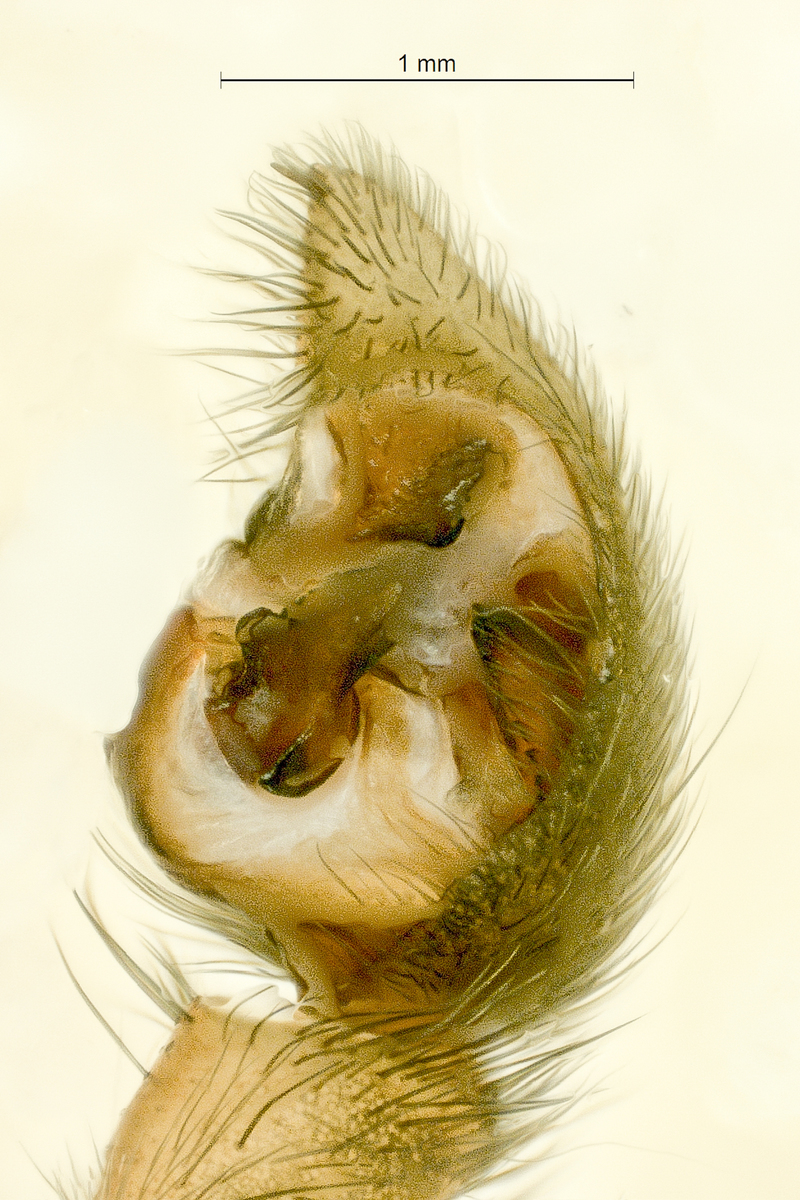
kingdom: Animalia
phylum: Arthropoda
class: Arachnida
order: Araneae
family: Lycosidae
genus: Pardosa
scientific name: Pardosa palustris
